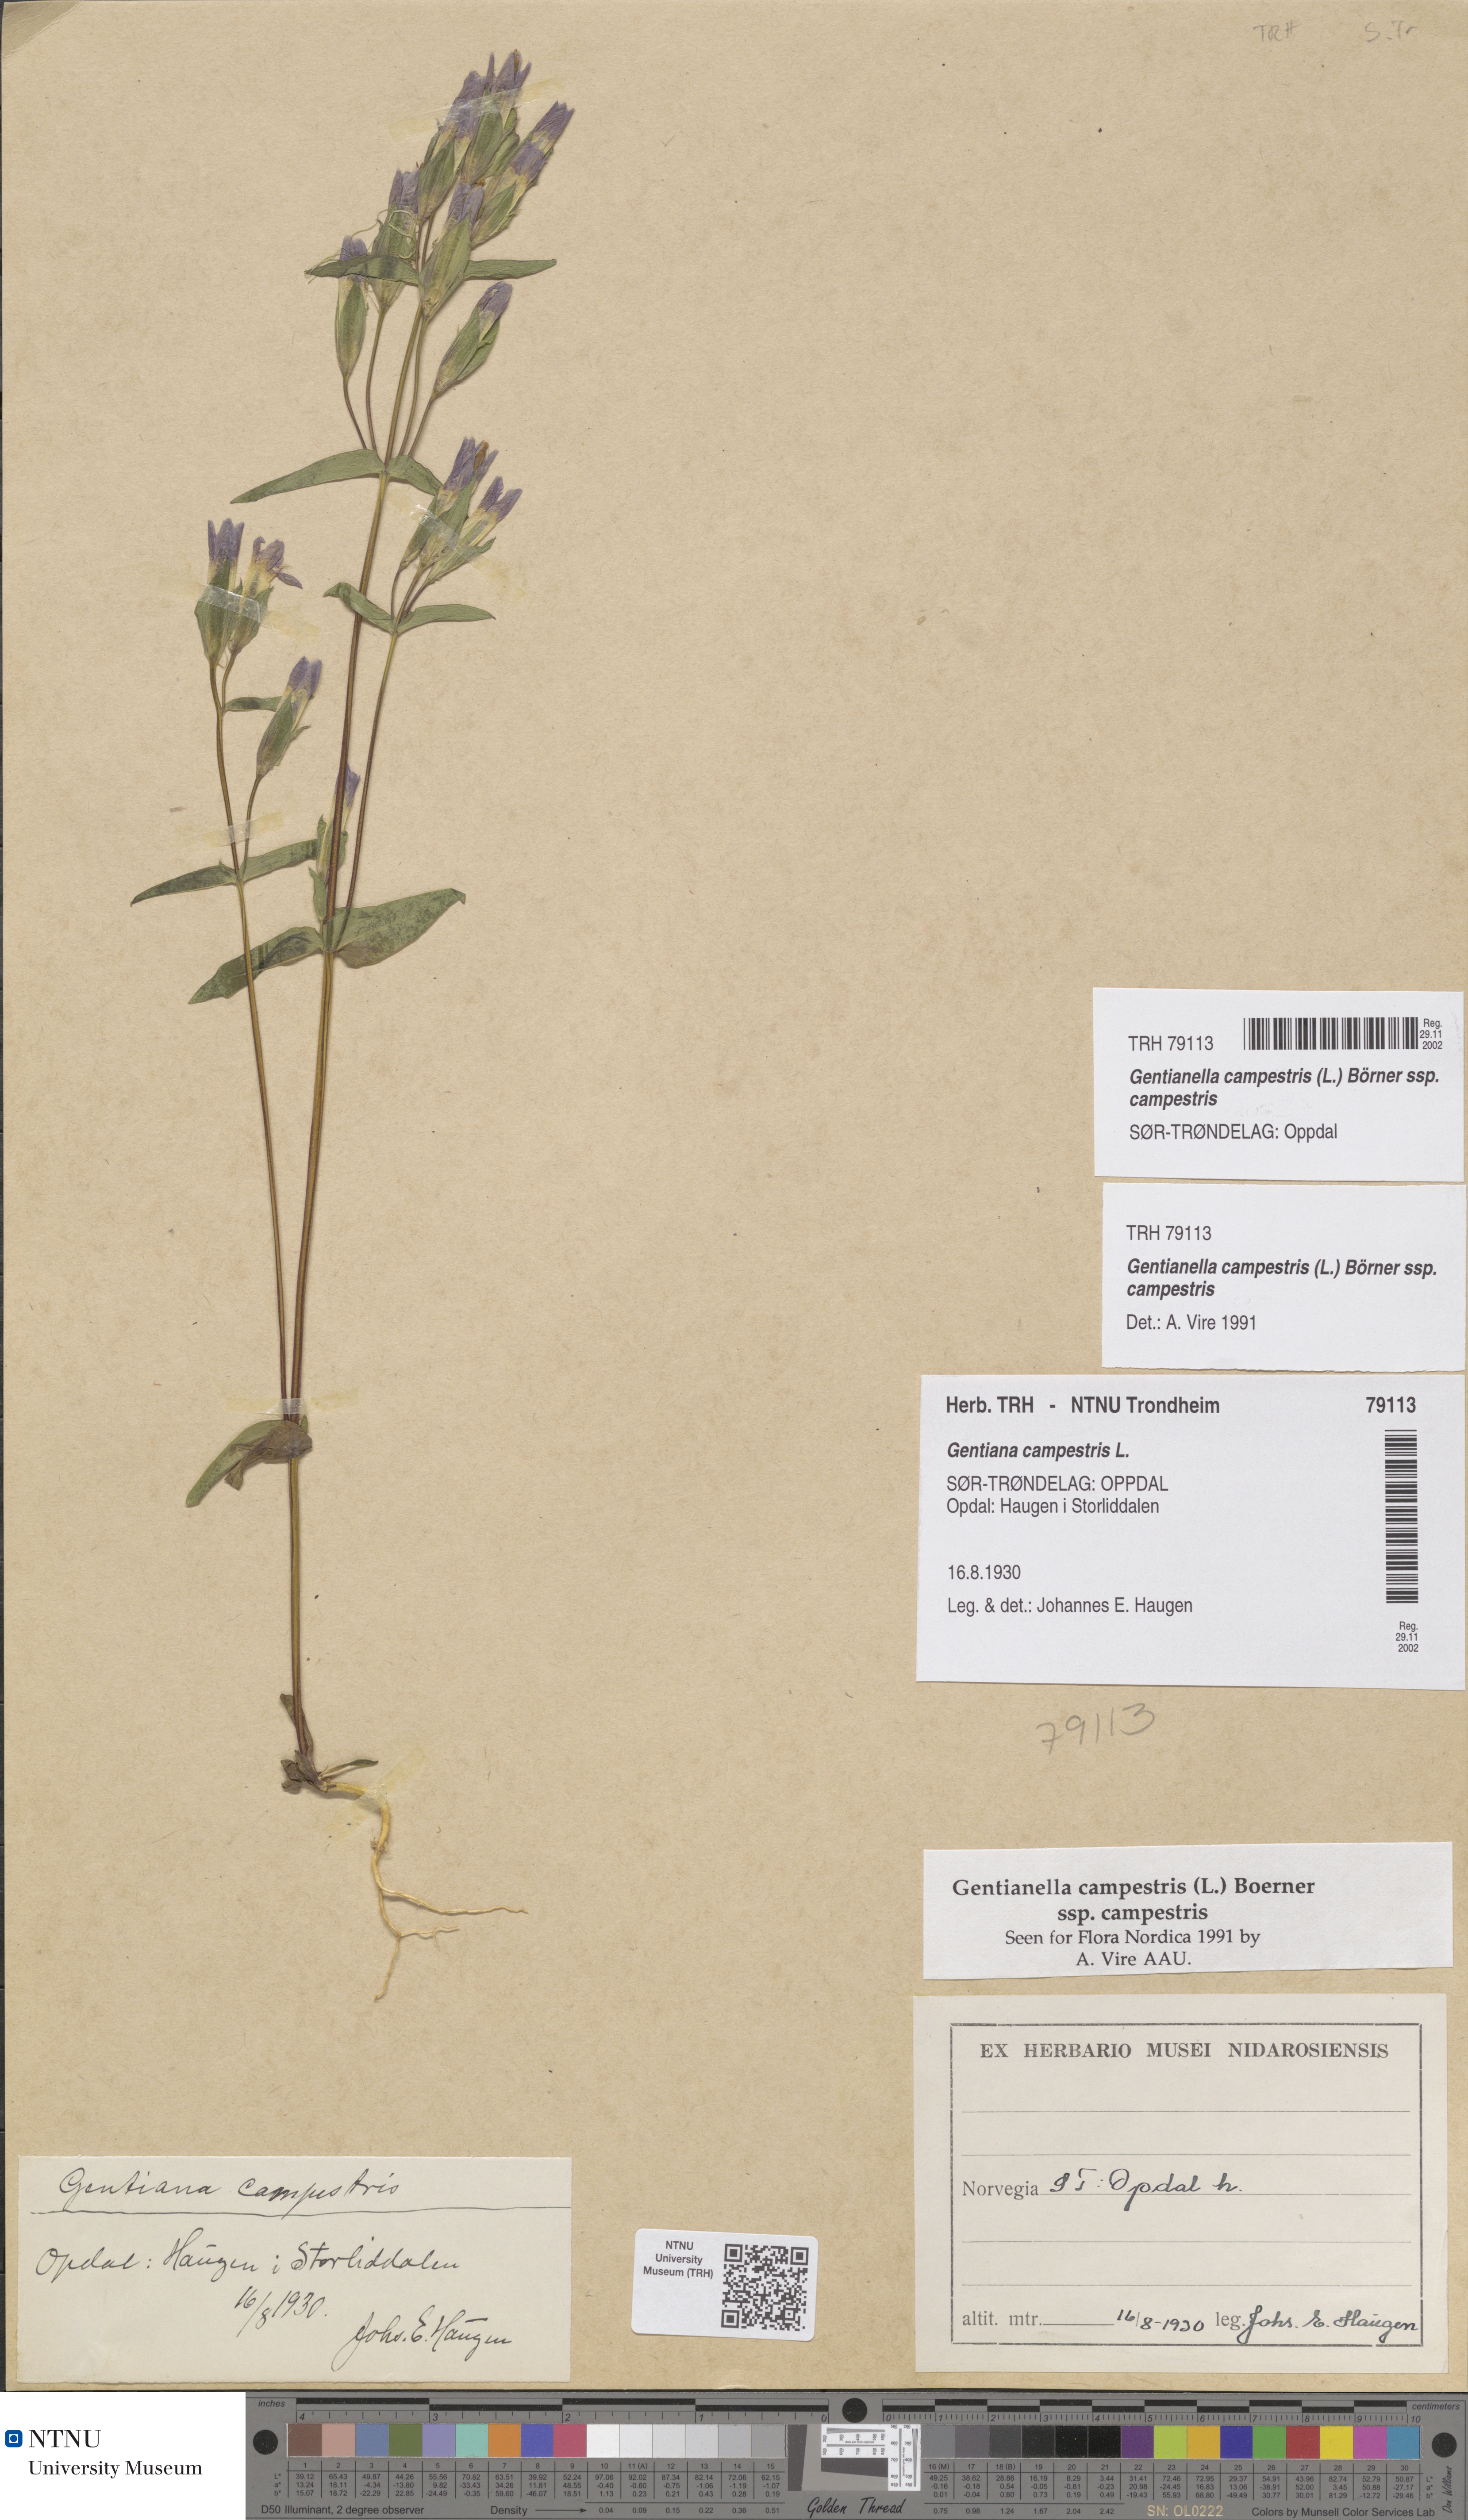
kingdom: Plantae
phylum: Tracheophyta
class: Magnoliopsida
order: Gentianales
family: Gentianaceae
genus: Gentianella
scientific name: Gentianella campestris
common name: Field gentian
